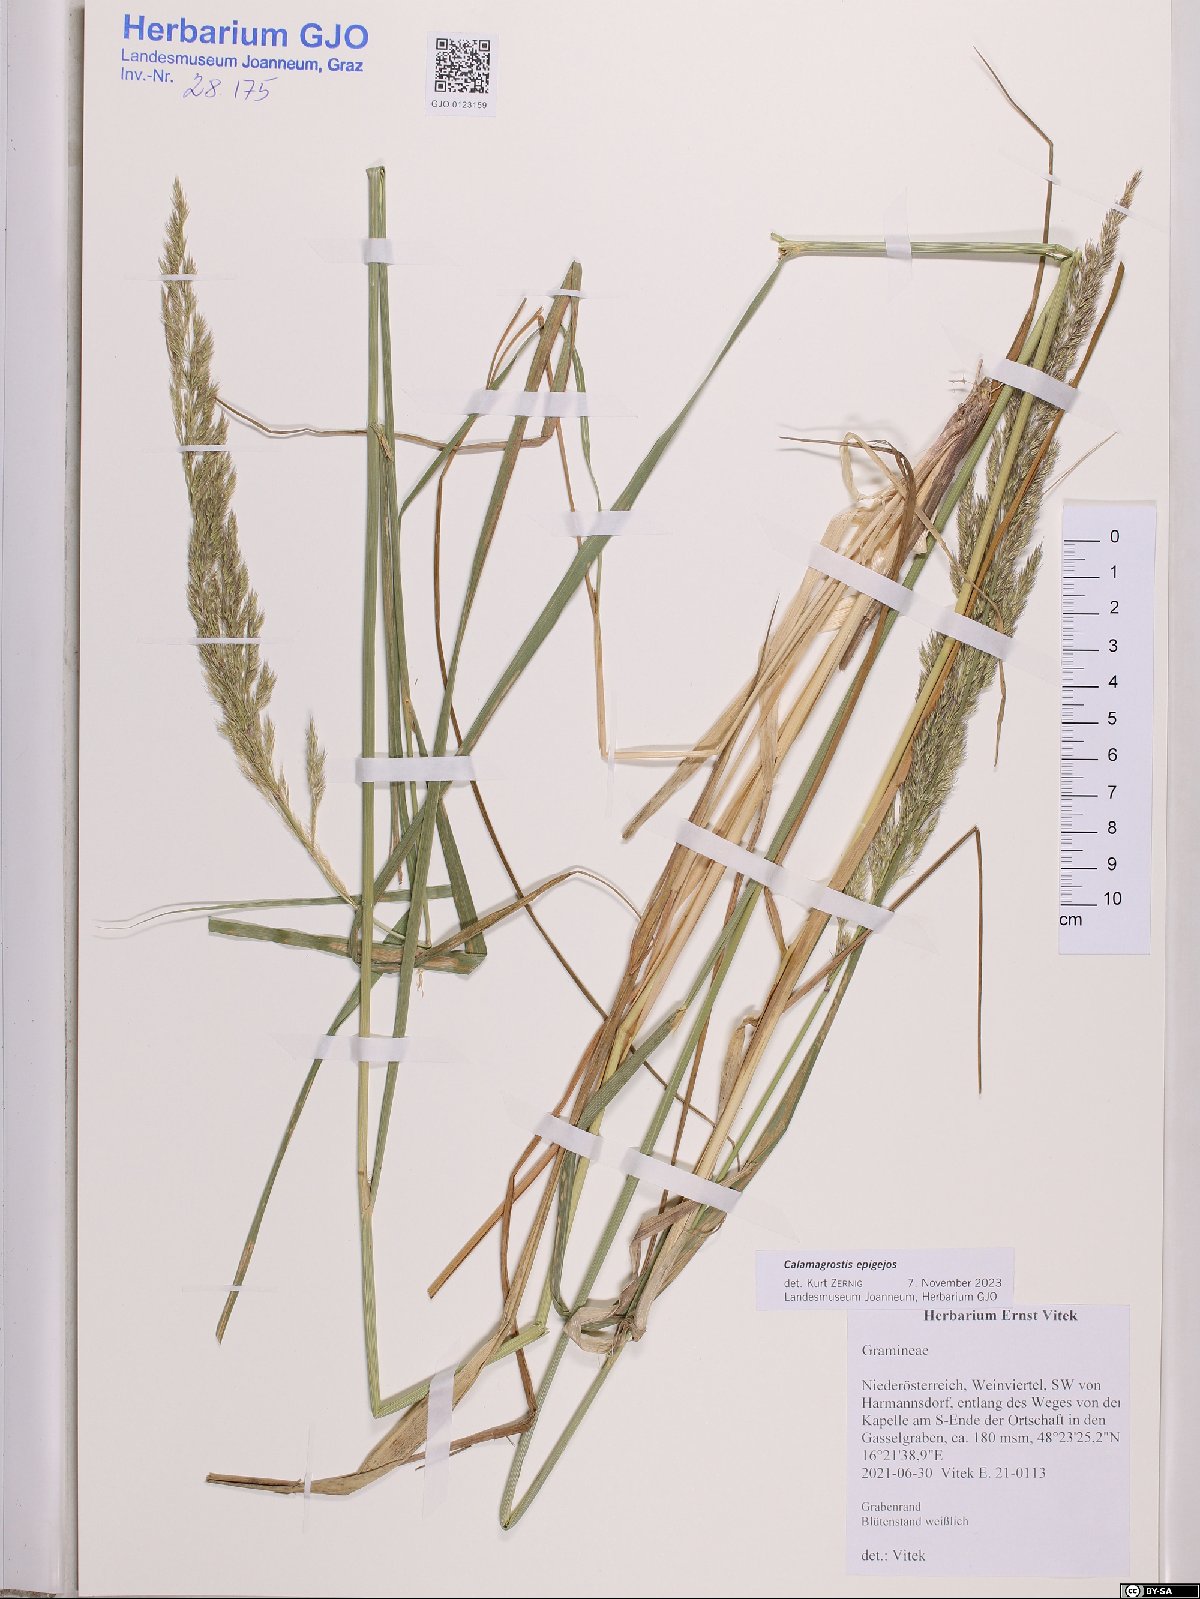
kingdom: Plantae
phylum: Tracheophyta
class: Liliopsida
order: Poales
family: Poaceae
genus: Calamagrostis
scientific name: Calamagrostis epigejos
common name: Wood small-reed
